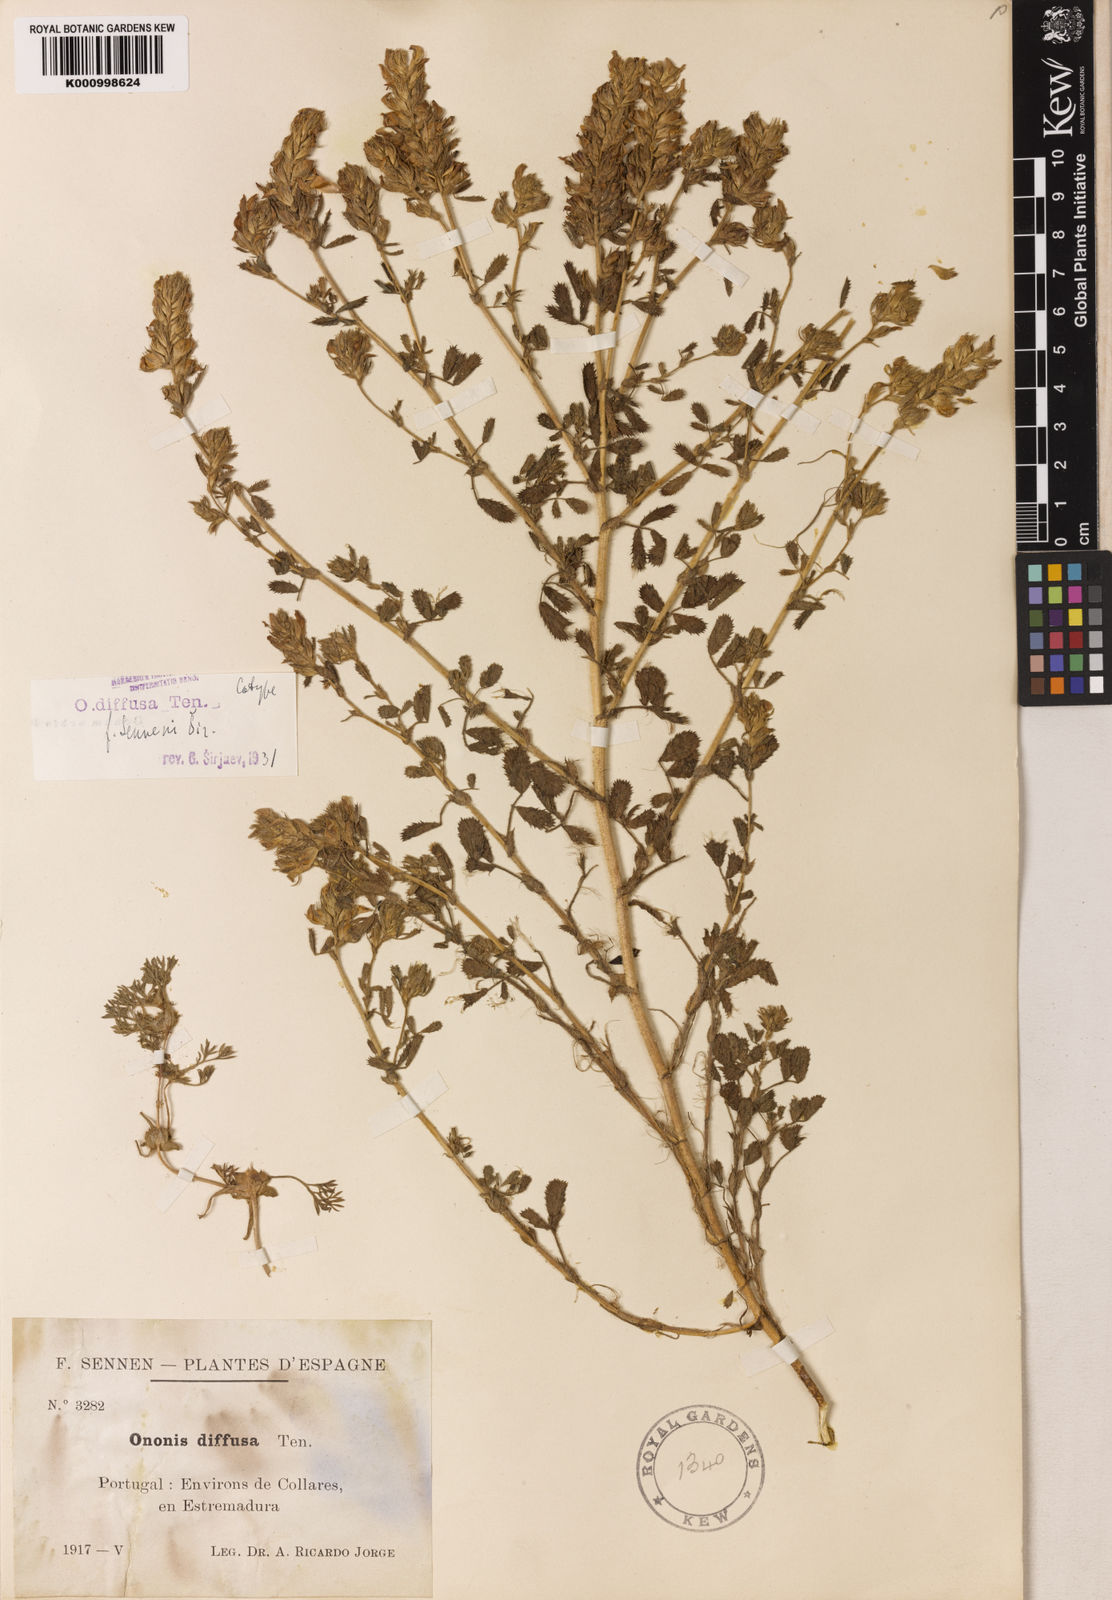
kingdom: Plantae
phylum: Tracheophyta
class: Magnoliopsida
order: Fabales
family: Fabaceae
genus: Ononis
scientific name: Ononis diffusa
